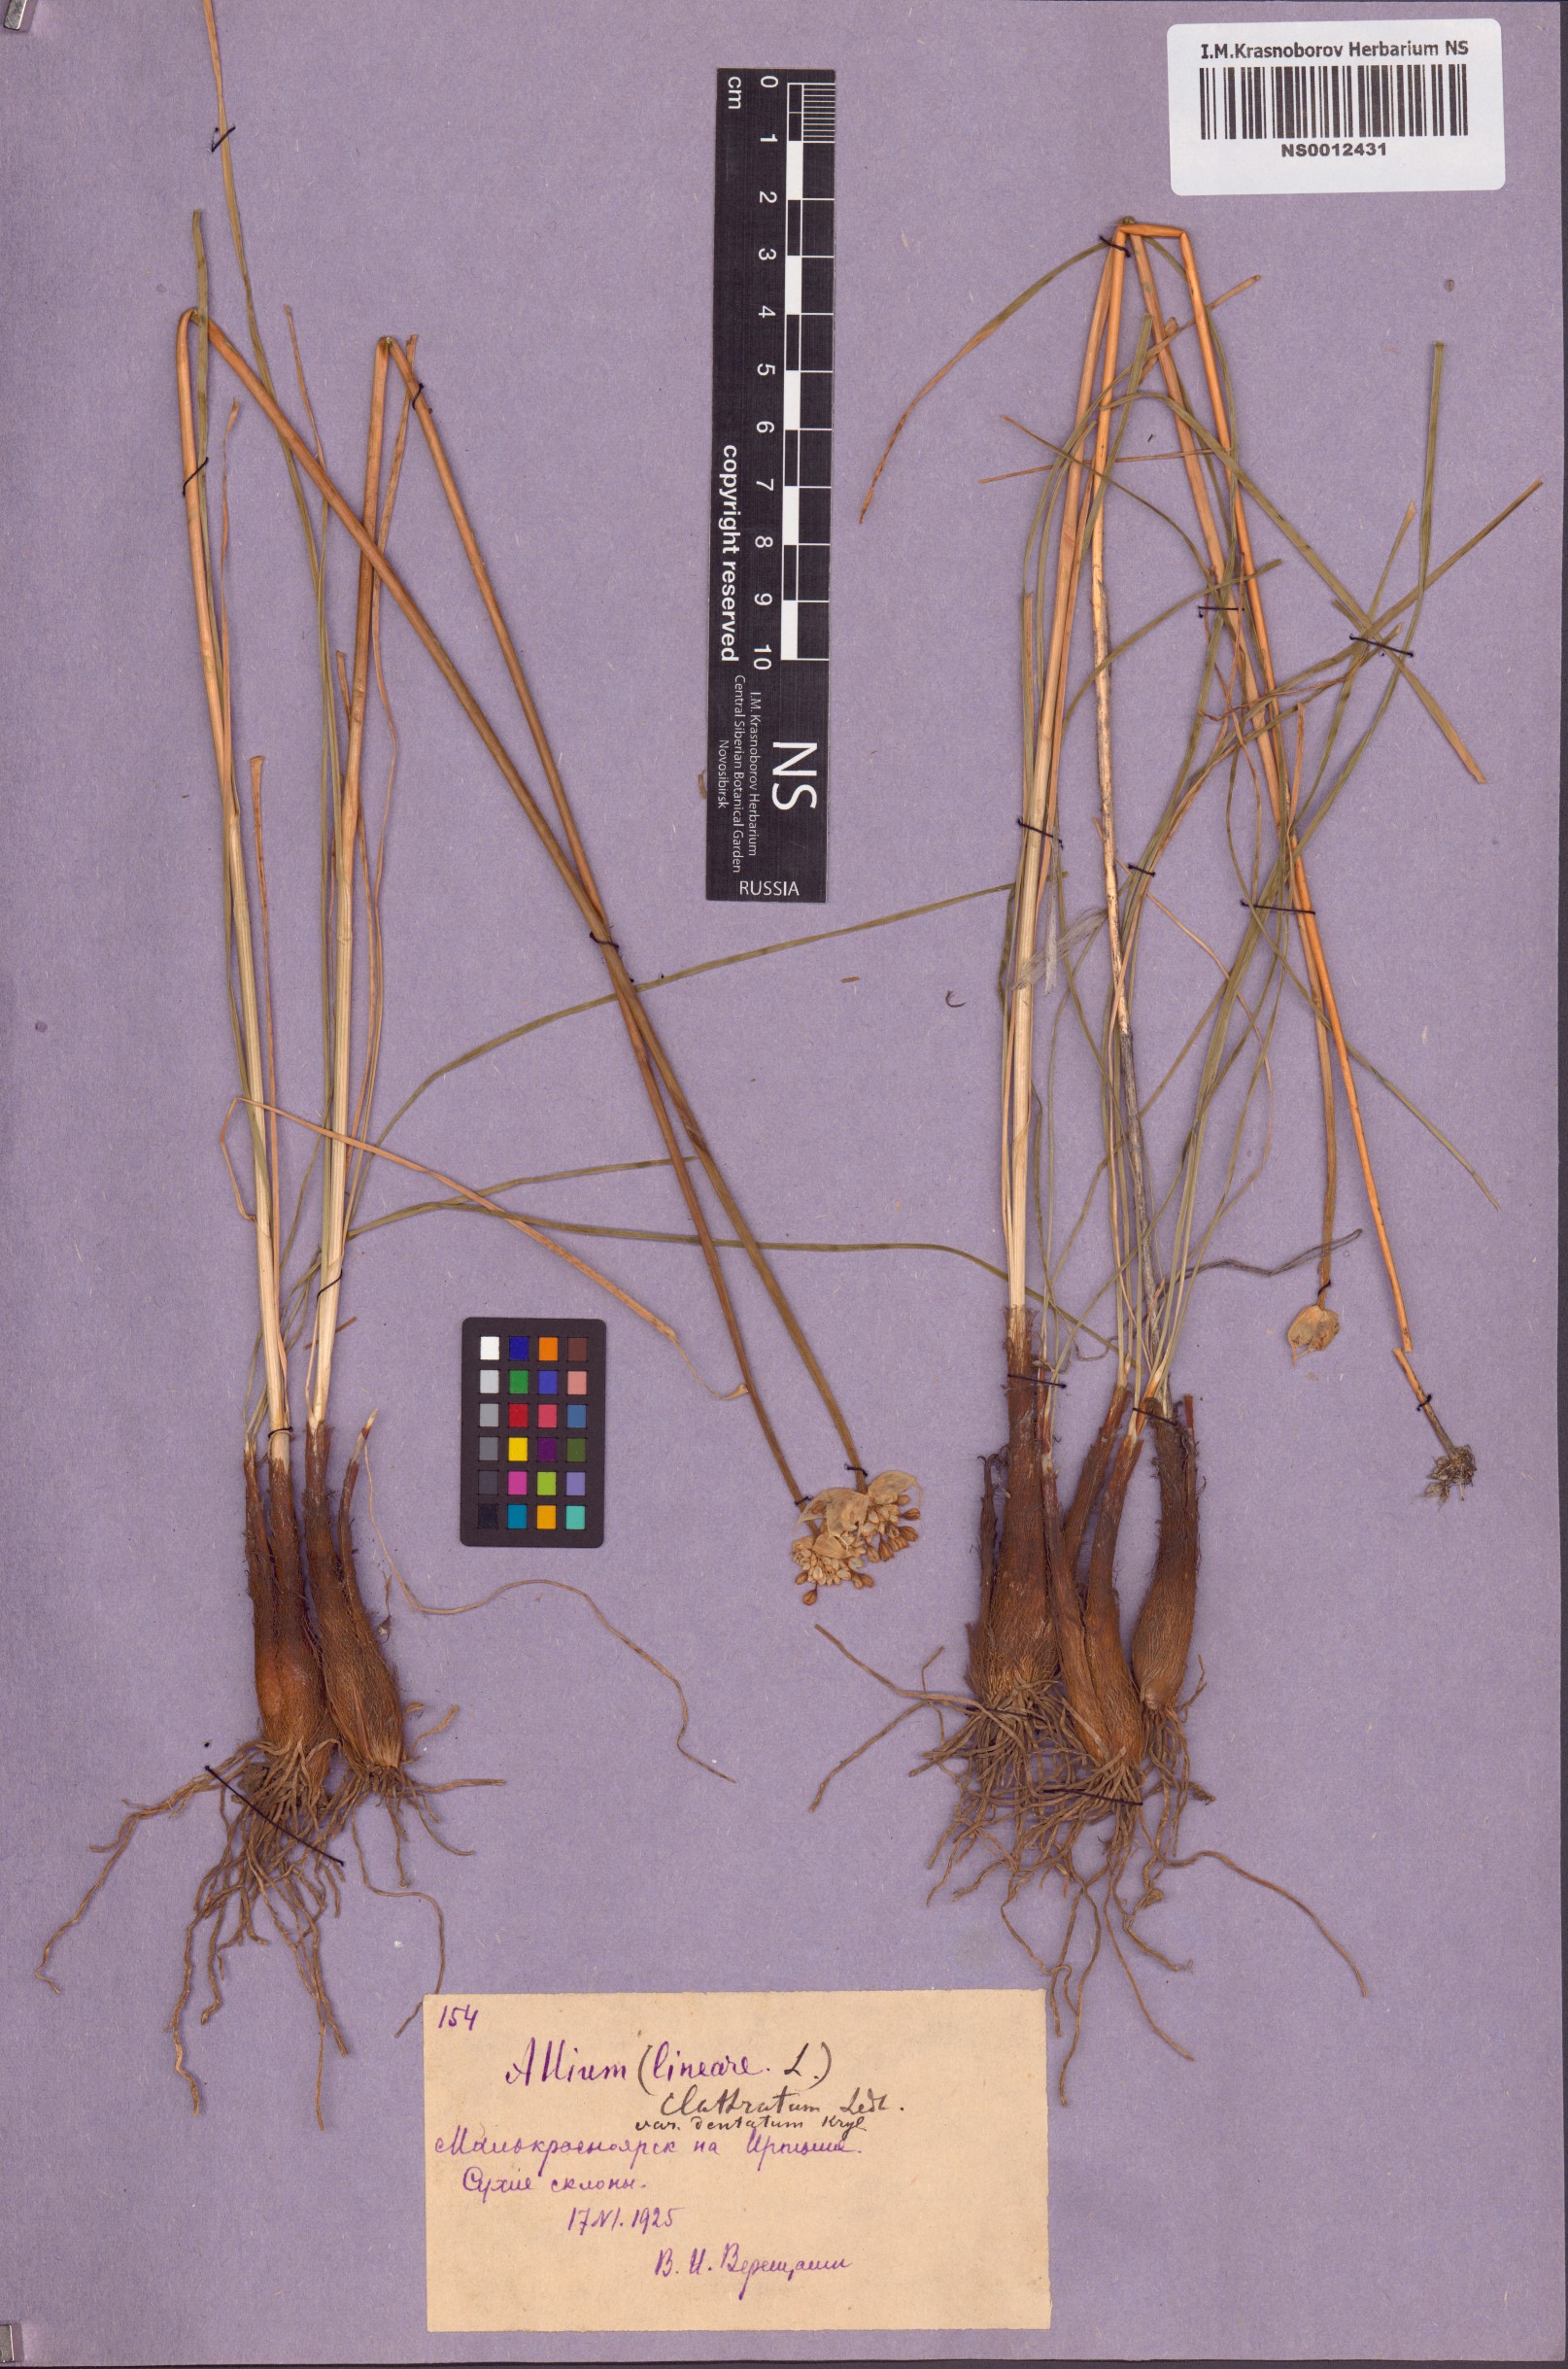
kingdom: Plantae
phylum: Tracheophyta
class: Liliopsida
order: Asparagales
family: Amaryllidaceae
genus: Allium
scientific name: Allium clathratum
